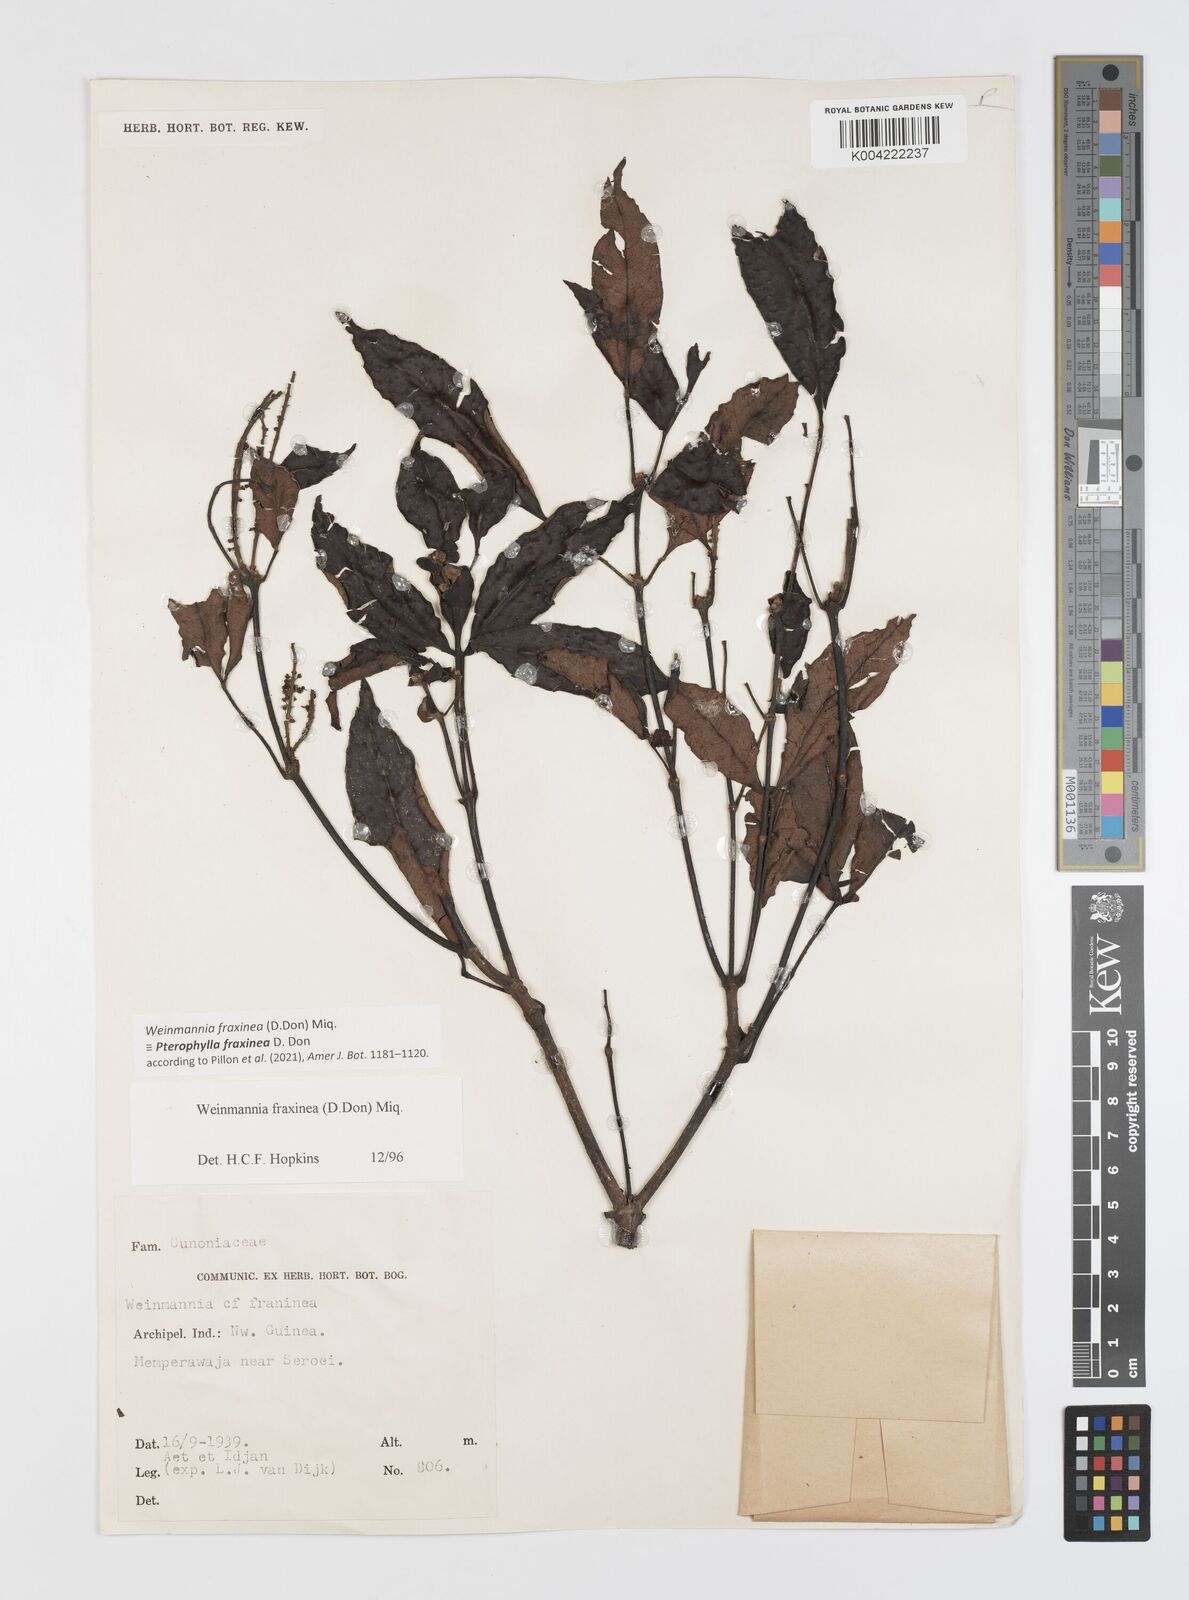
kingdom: Plantae
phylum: Tracheophyta
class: Magnoliopsida
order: Oxalidales
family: Cunoniaceae
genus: Pterophylla
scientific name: Pterophylla fraxinea
